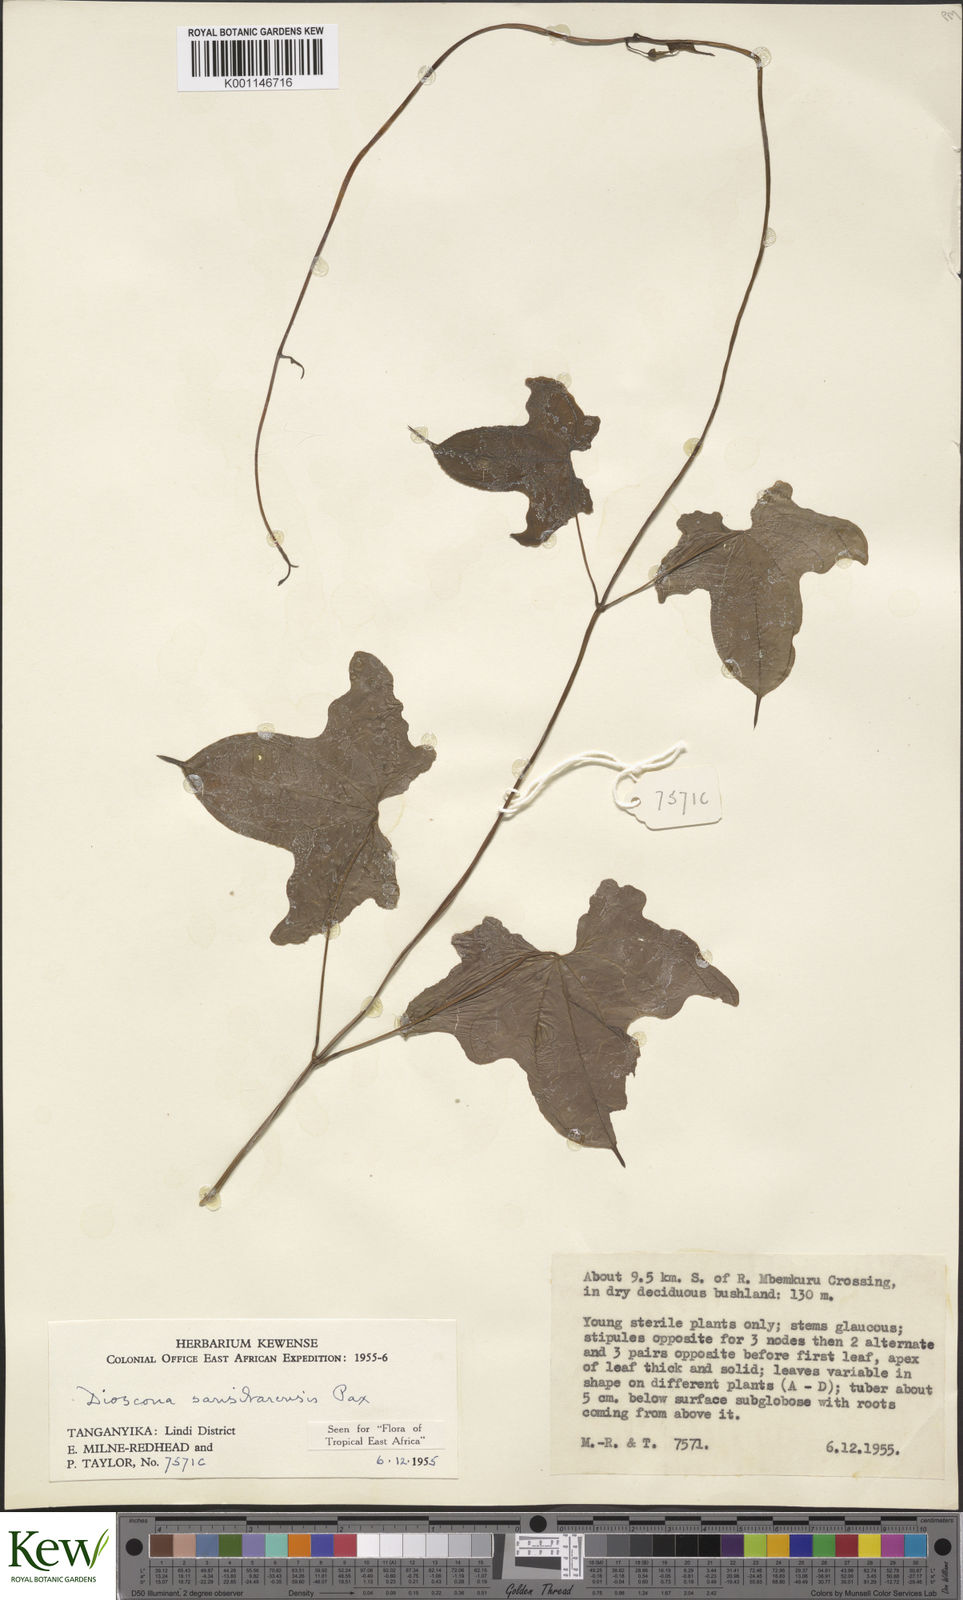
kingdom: Plantae
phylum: Tracheophyta
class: Liliopsida
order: Dioscoreales
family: Dioscoreaceae
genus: Dioscorea
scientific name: Dioscorea sansibarensis
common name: Zanzibar yam
